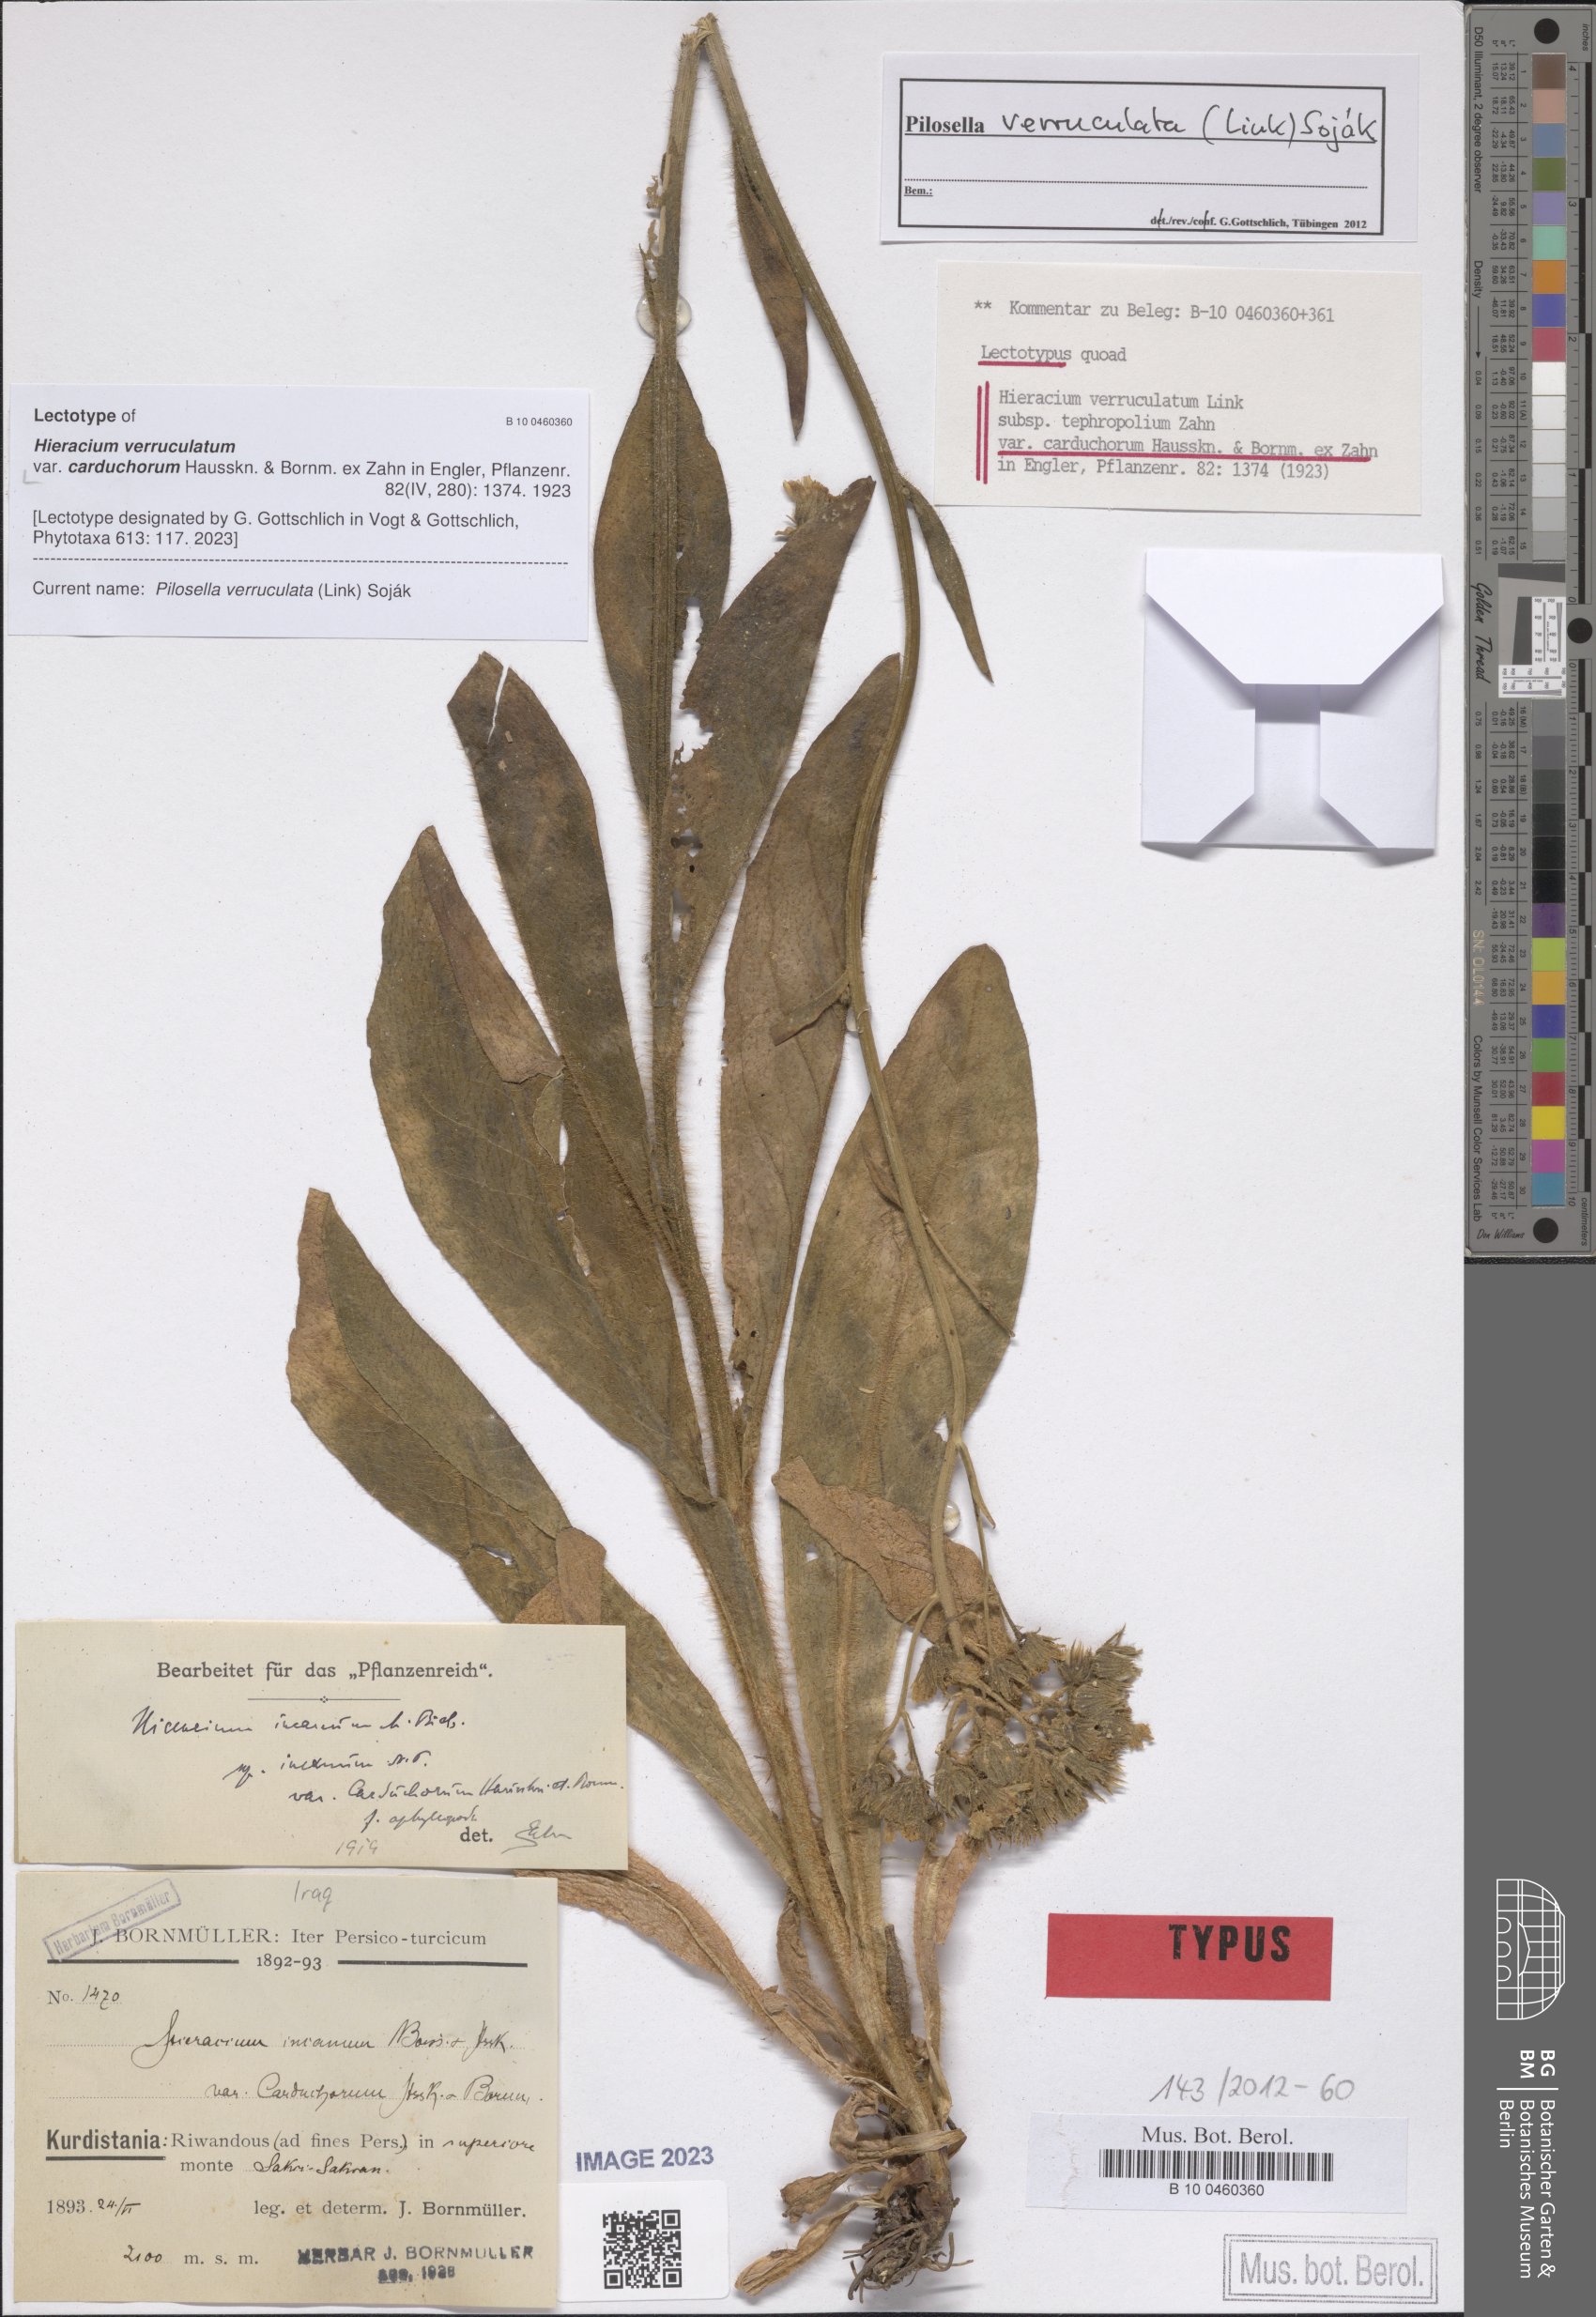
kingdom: Plantae
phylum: Tracheophyta
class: Magnoliopsida
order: Asterales
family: Asteraceae
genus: Pilosella
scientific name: Pilosella verruculata
